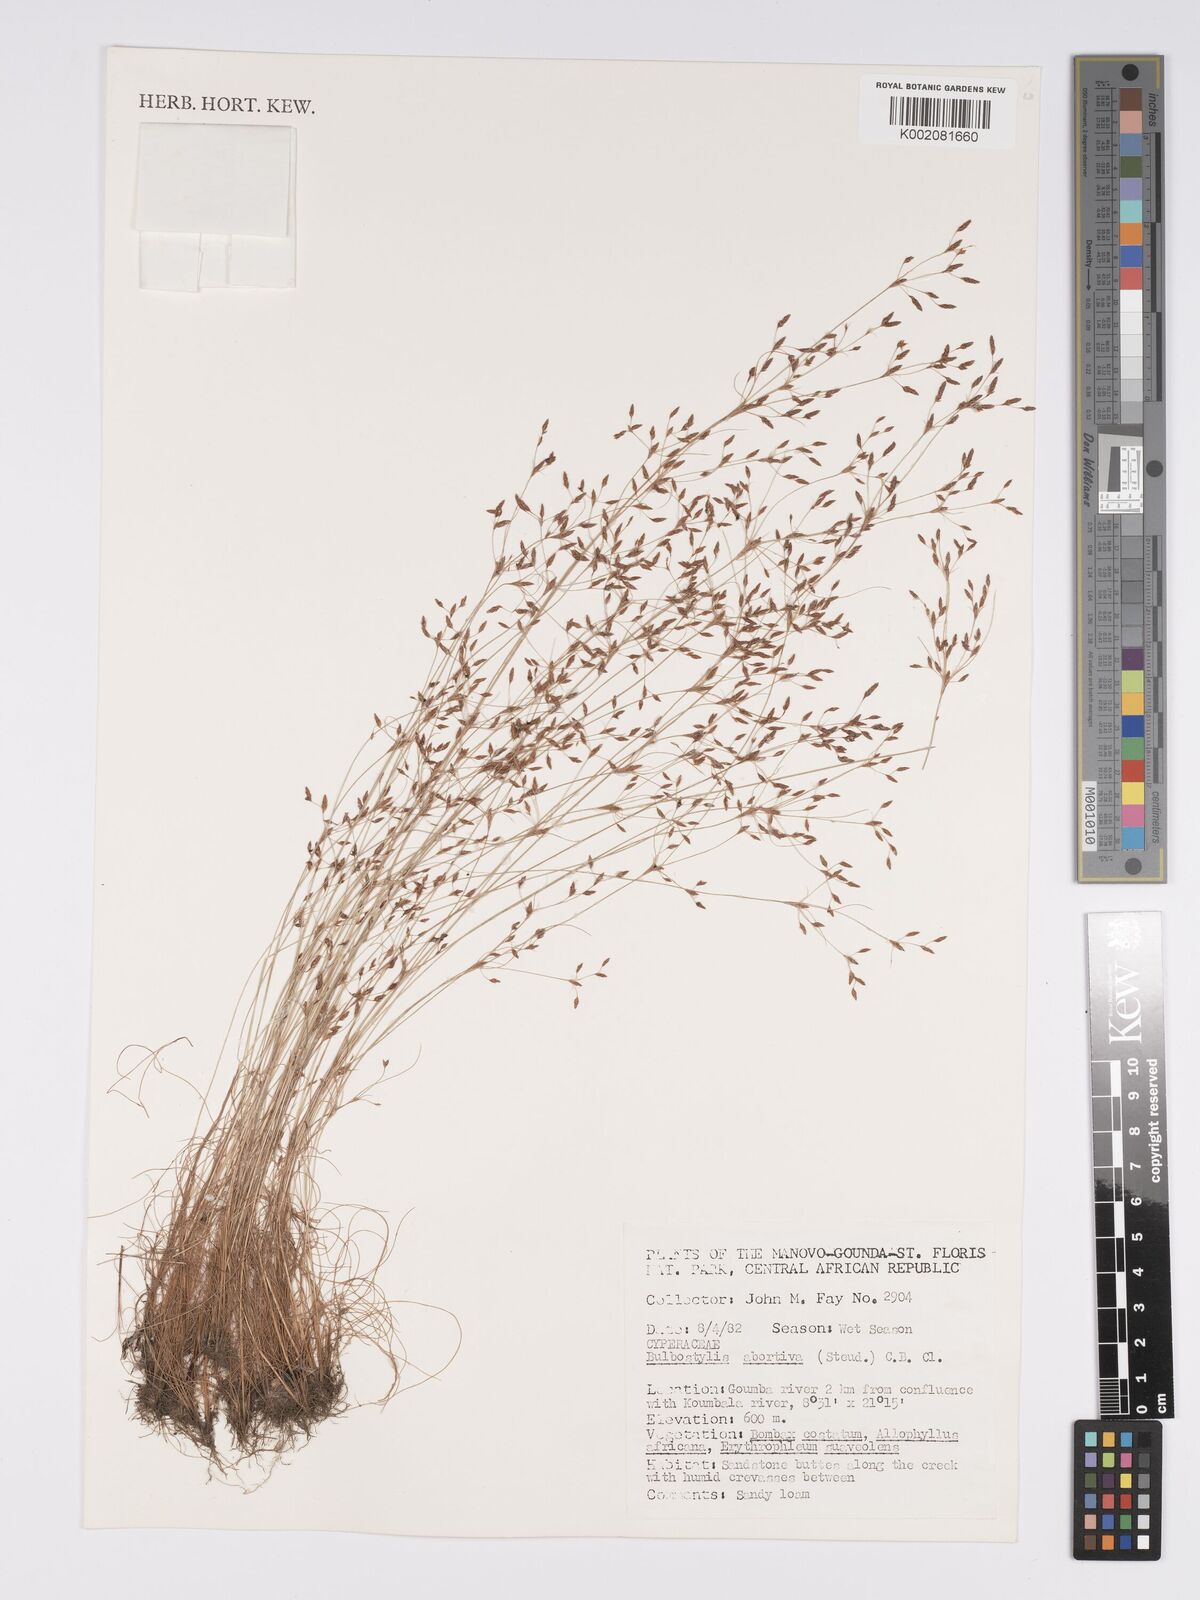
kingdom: Plantae
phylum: Tracheophyta
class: Liliopsida
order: Poales
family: Cyperaceae
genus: Bulbostylis
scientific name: Bulbostylis abortiva
